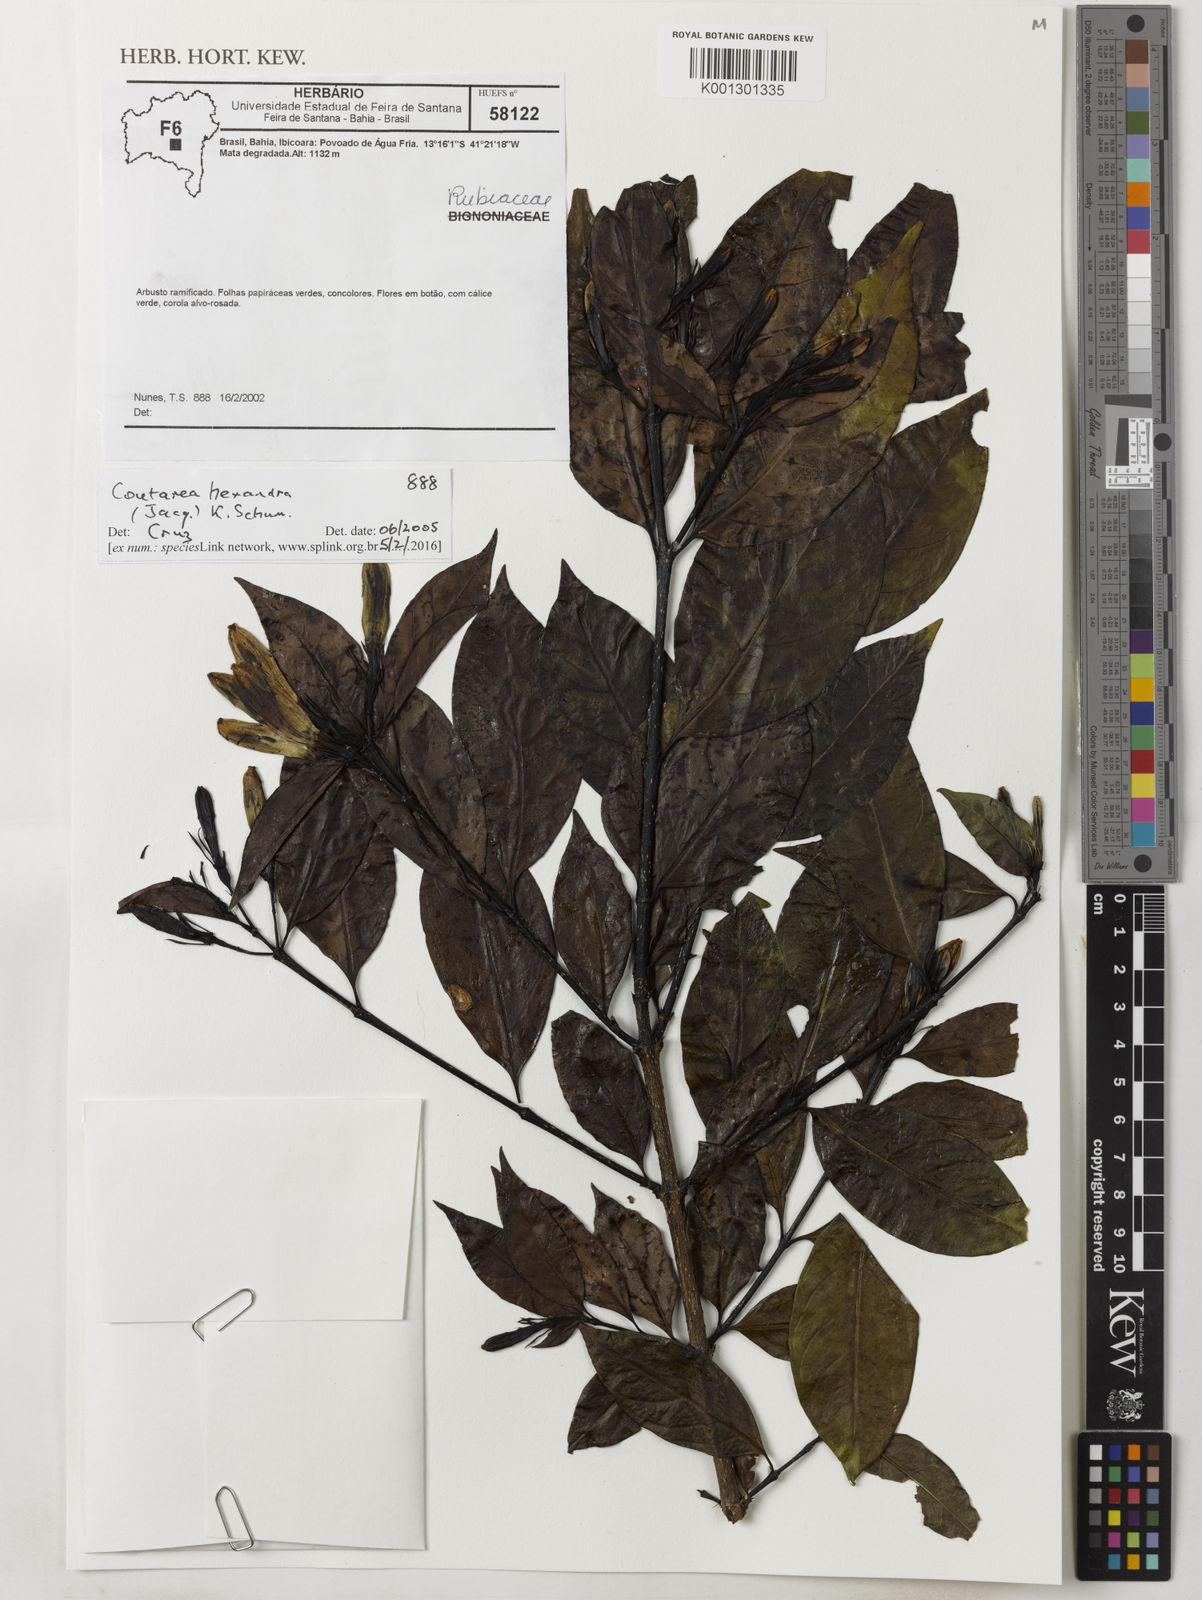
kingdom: Plantae
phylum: Tracheophyta
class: Magnoliopsida
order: Gentianales
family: Rubiaceae
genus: Coutarea
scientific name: Coutarea hexandra
